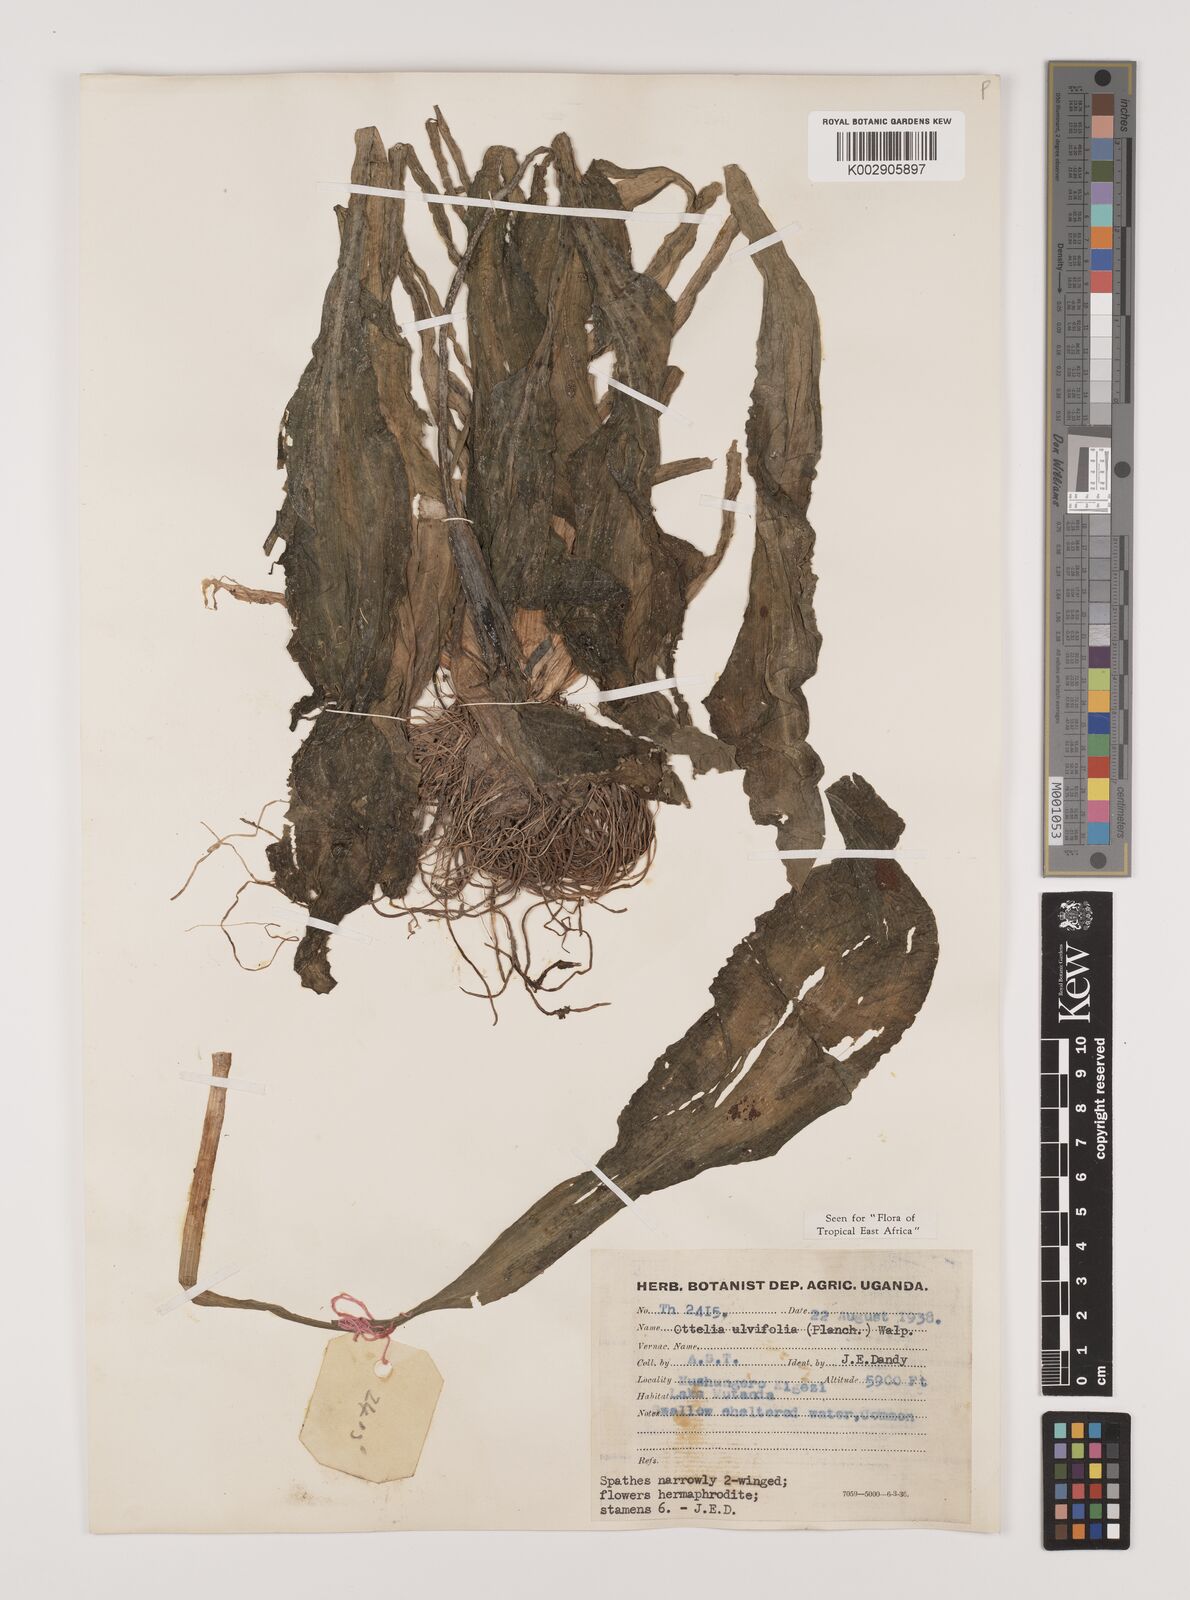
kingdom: Plantae
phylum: Tracheophyta
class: Liliopsida
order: Alismatales
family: Hydrocharitaceae
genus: Ottelia
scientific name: Ottelia ulvifolia
